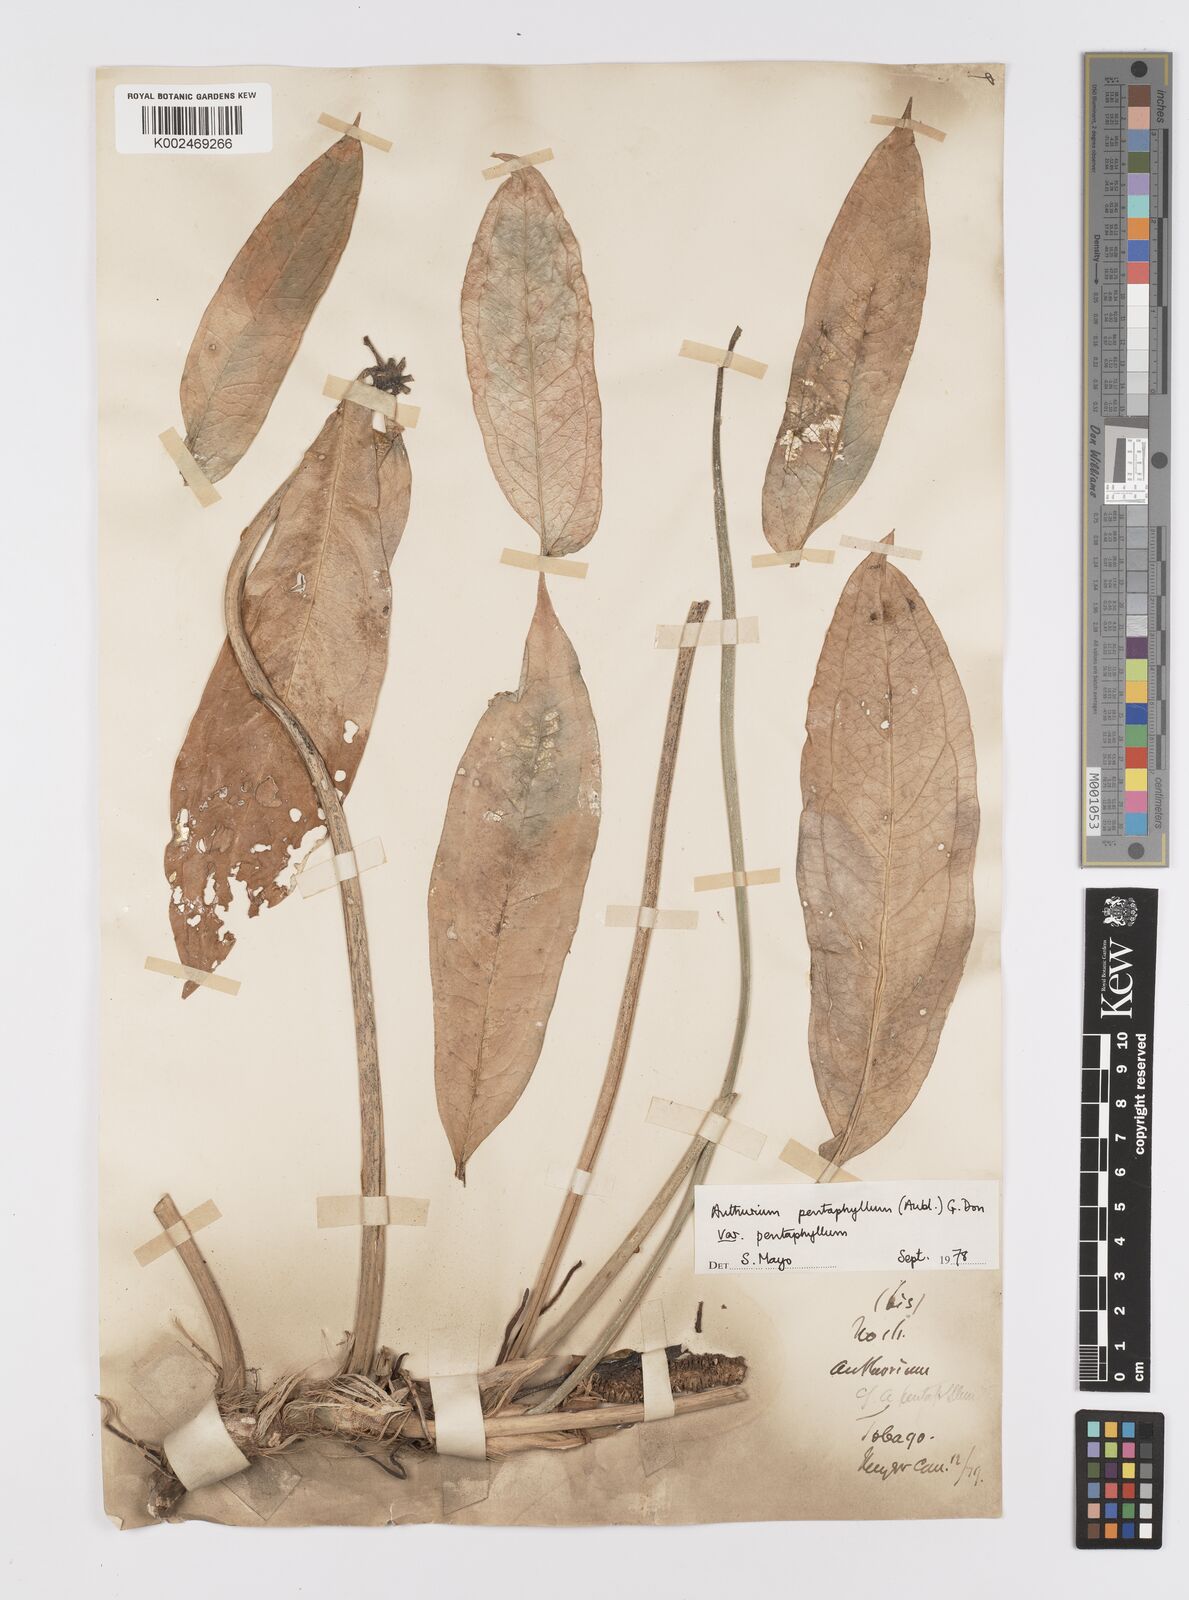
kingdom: Plantae
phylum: Tracheophyta
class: Liliopsida
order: Alismatales
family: Araceae
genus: Anthurium
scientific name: Anthurium pentaphyllum
